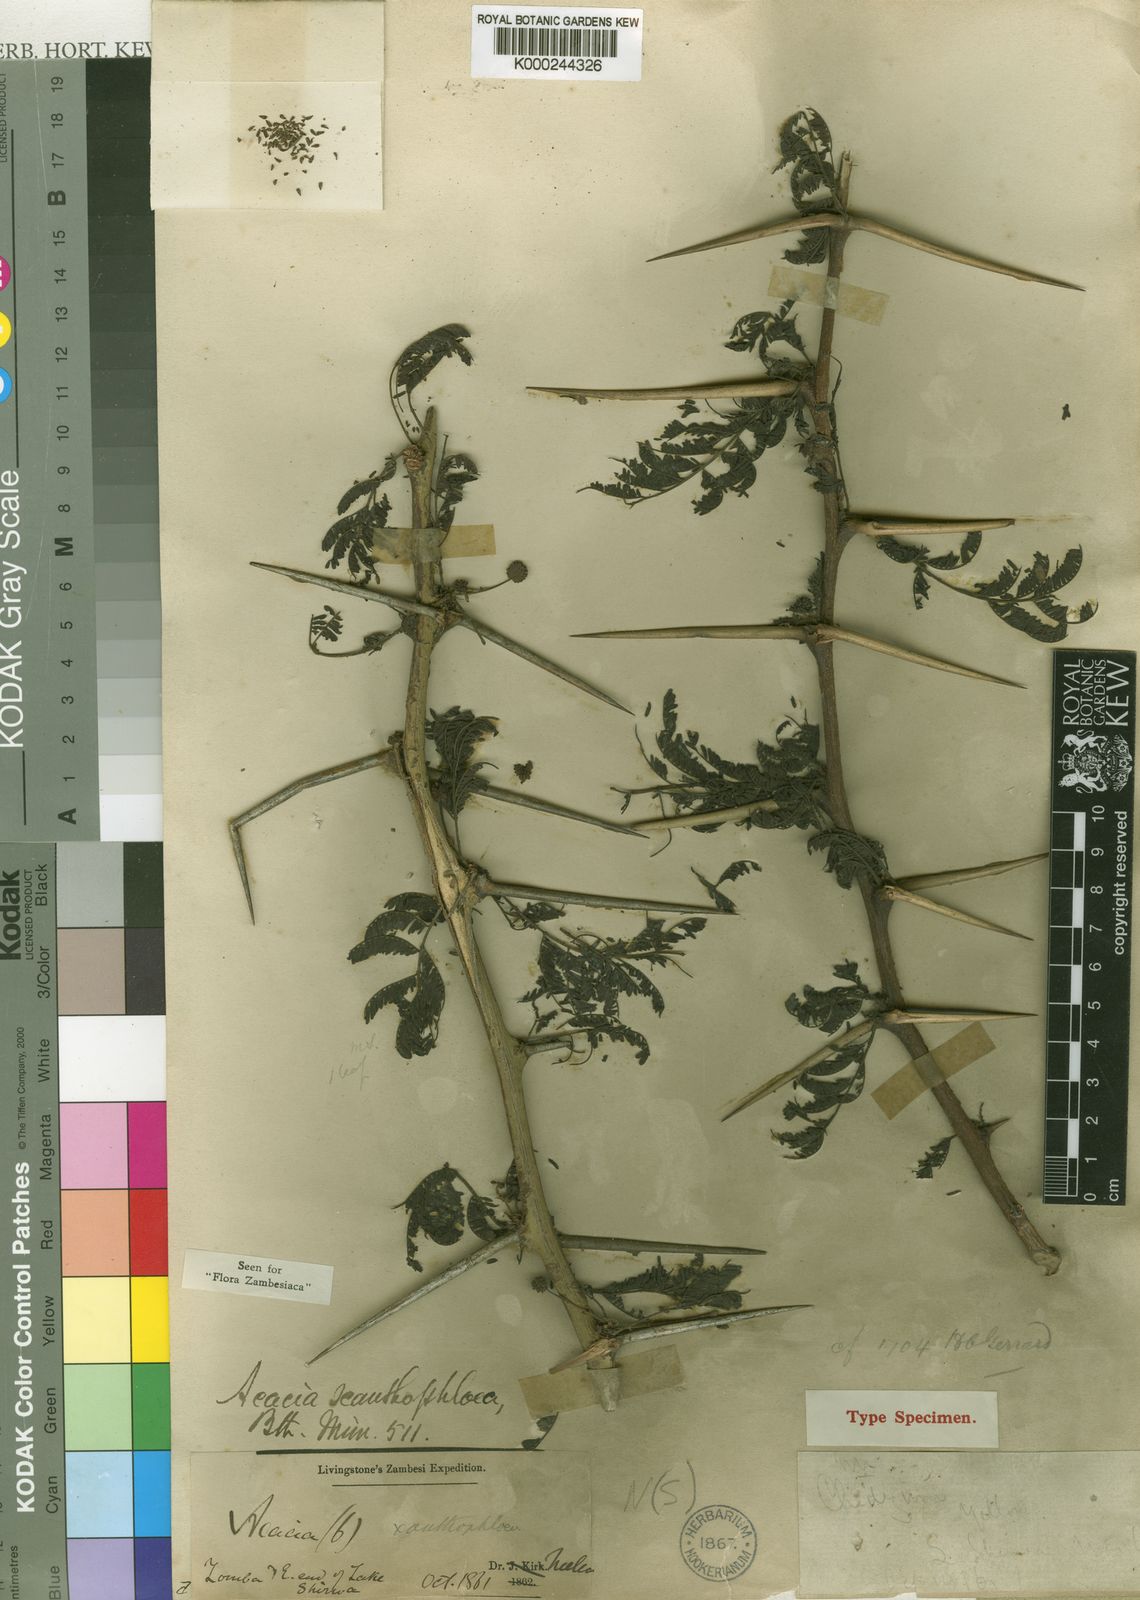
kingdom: Plantae
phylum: Tracheophyta
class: Magnoliopsida
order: Fabales
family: Fabaceae
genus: Vachellia
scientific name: Vachellia xanthophloea
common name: Fever tree
